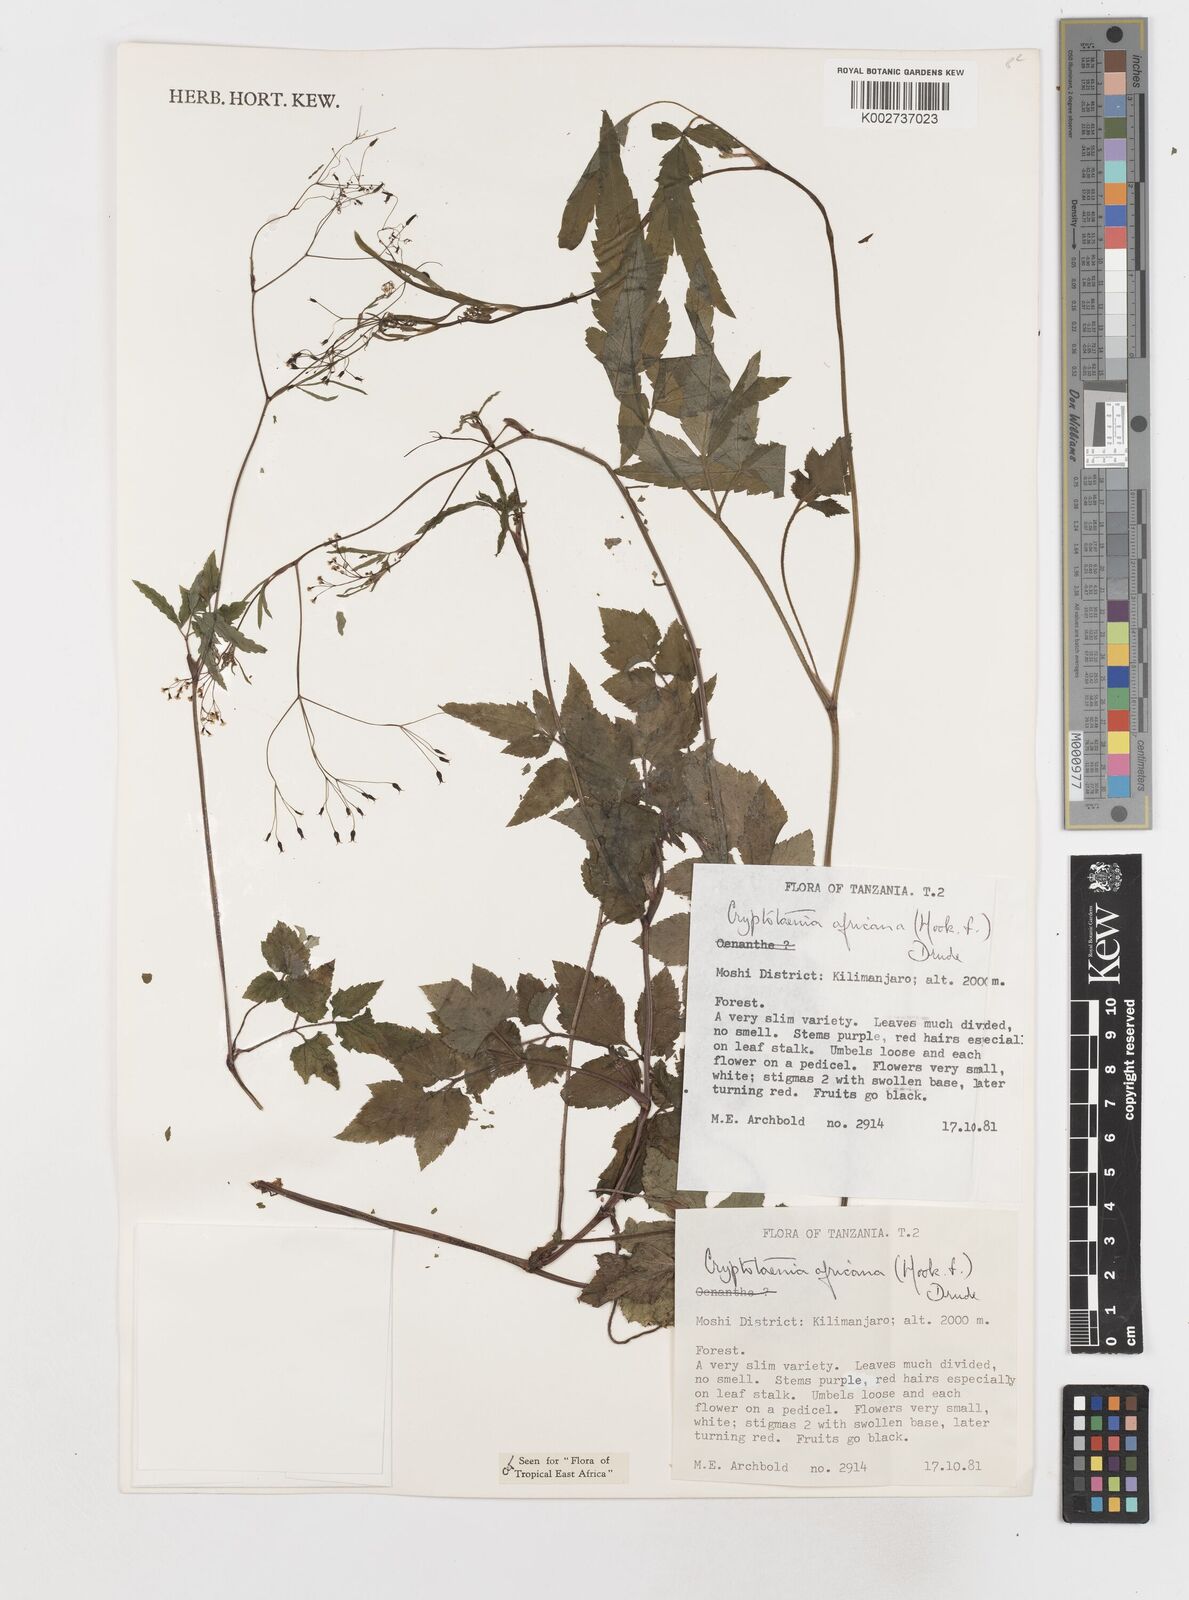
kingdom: Plantae
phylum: Tracheophyta
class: Magnoliopsida
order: Apiales
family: Apiaceae
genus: Cryptotaenia
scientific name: Cryptotaenia africana
